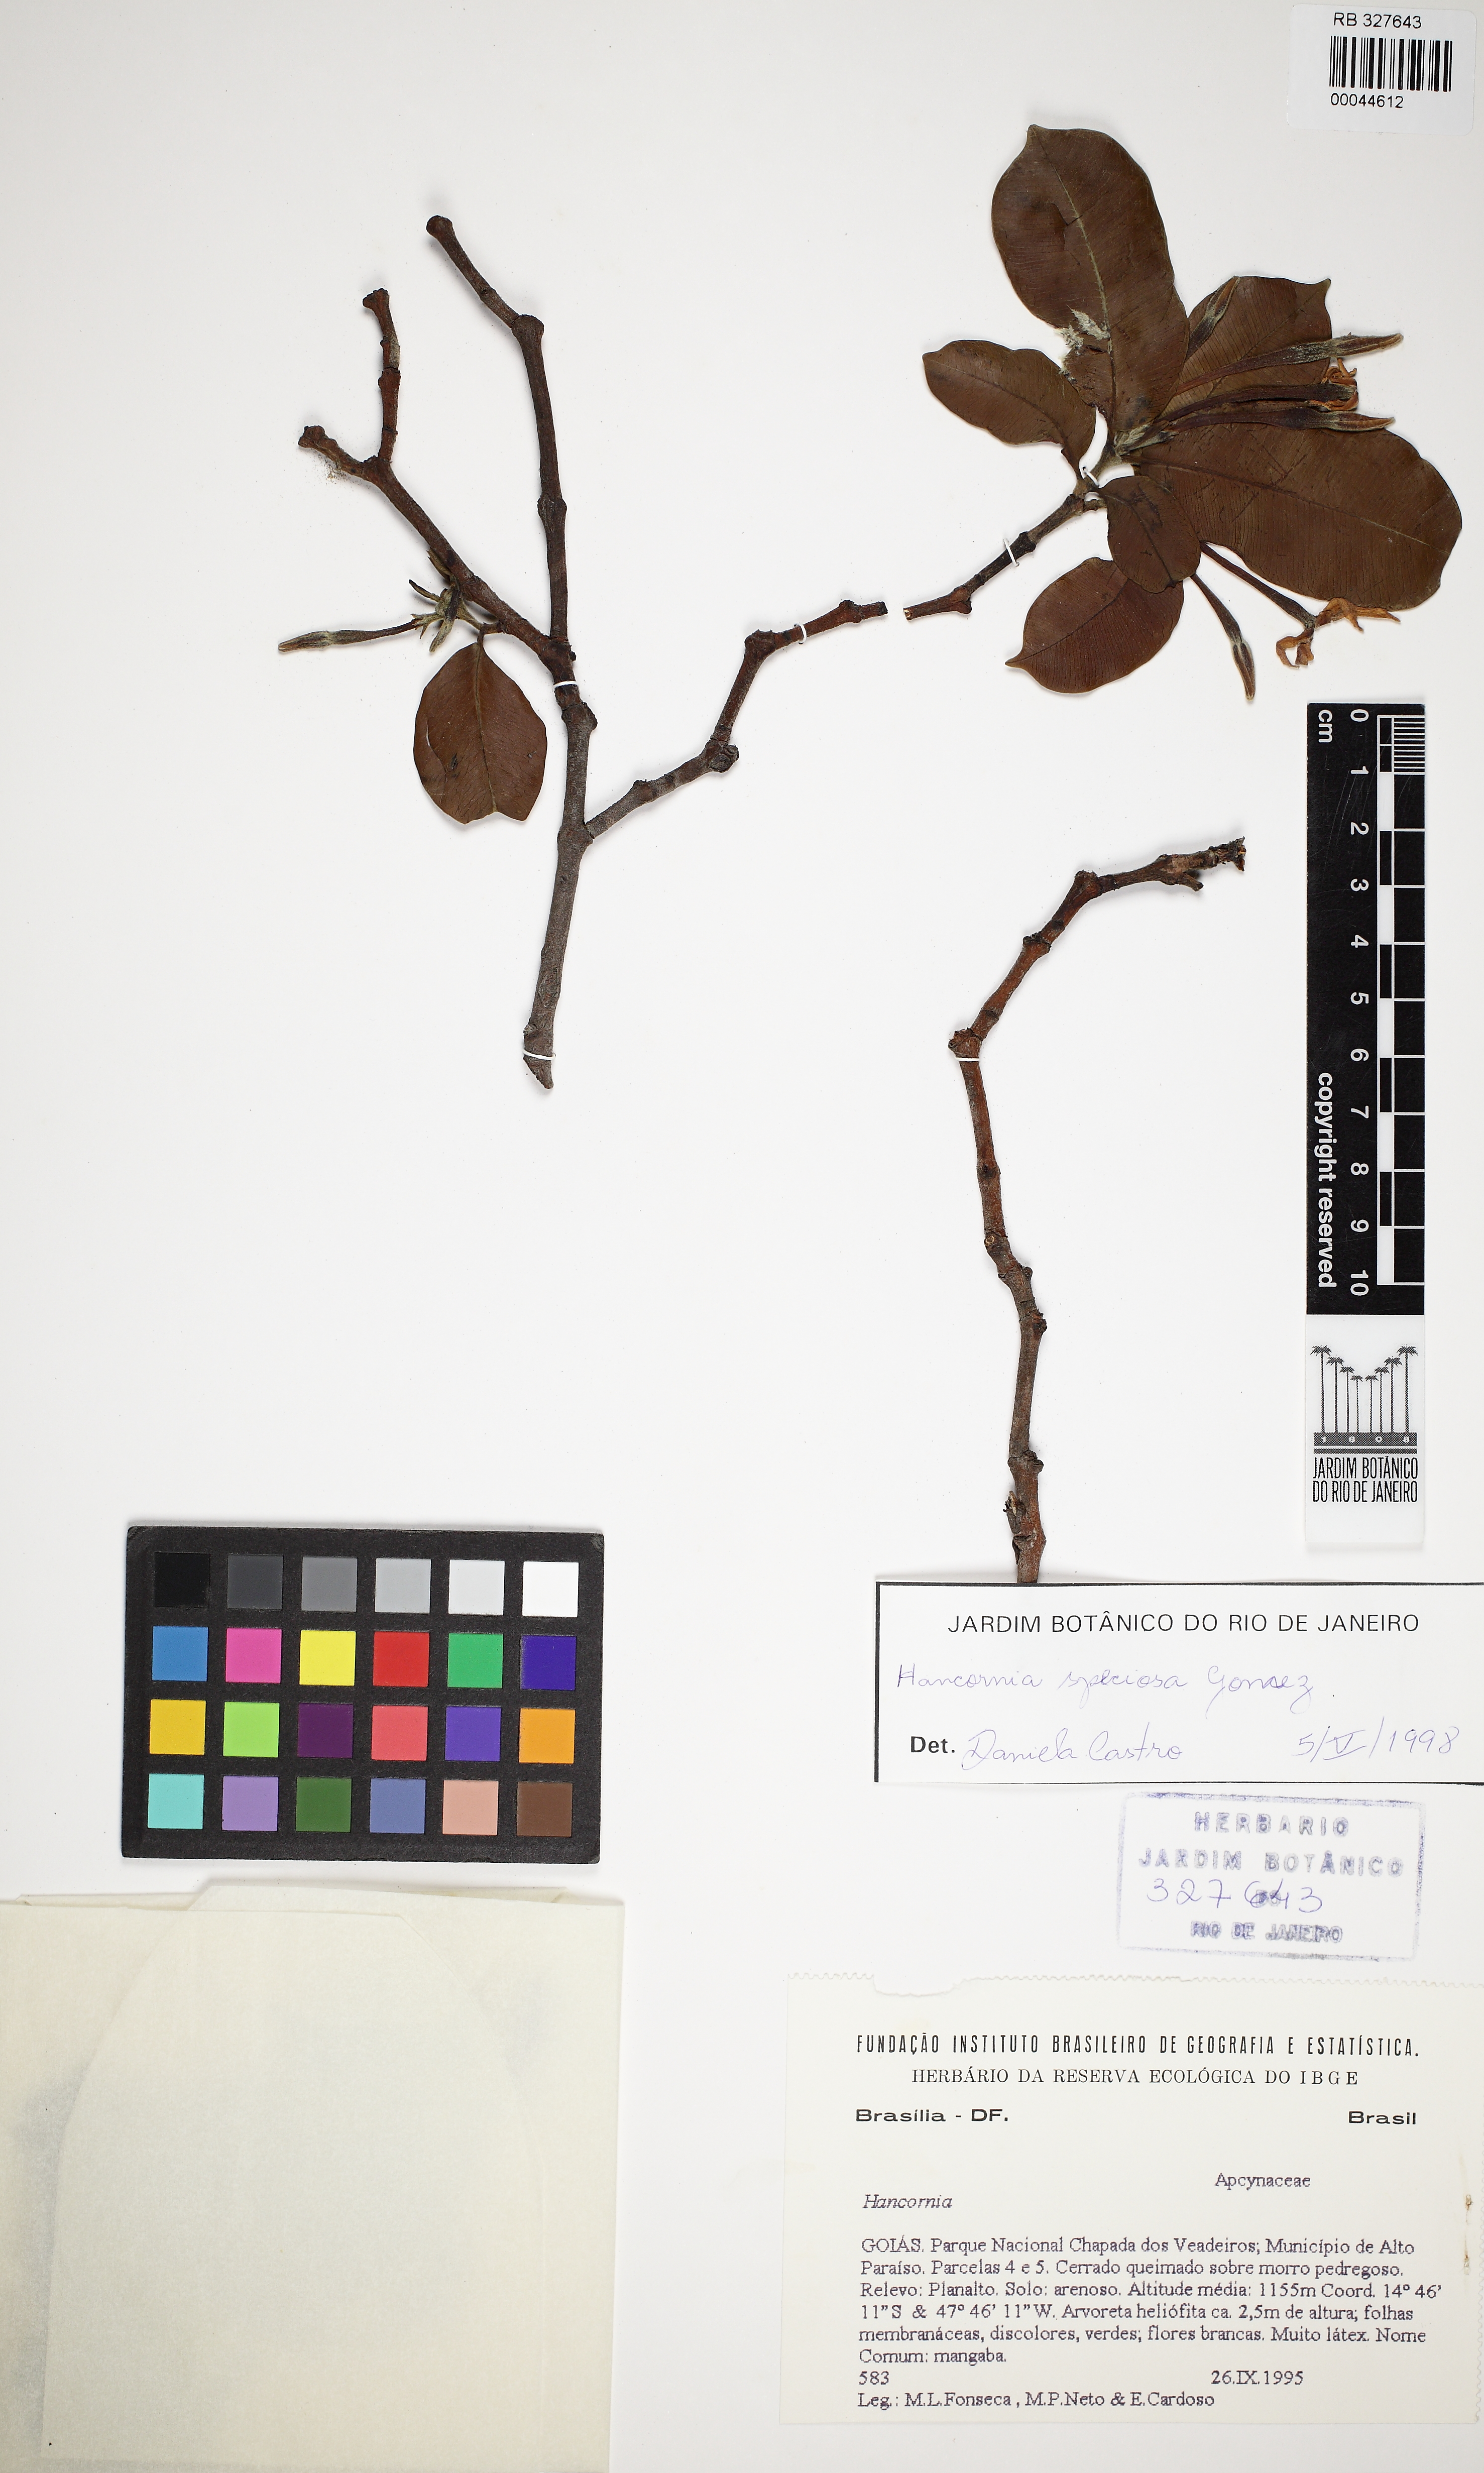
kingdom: Plantae
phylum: Tracheophyta
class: Magnoliopsida
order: Gentianales
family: Apocynaceae
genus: Hancornia
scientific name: Hancornia speciosa
